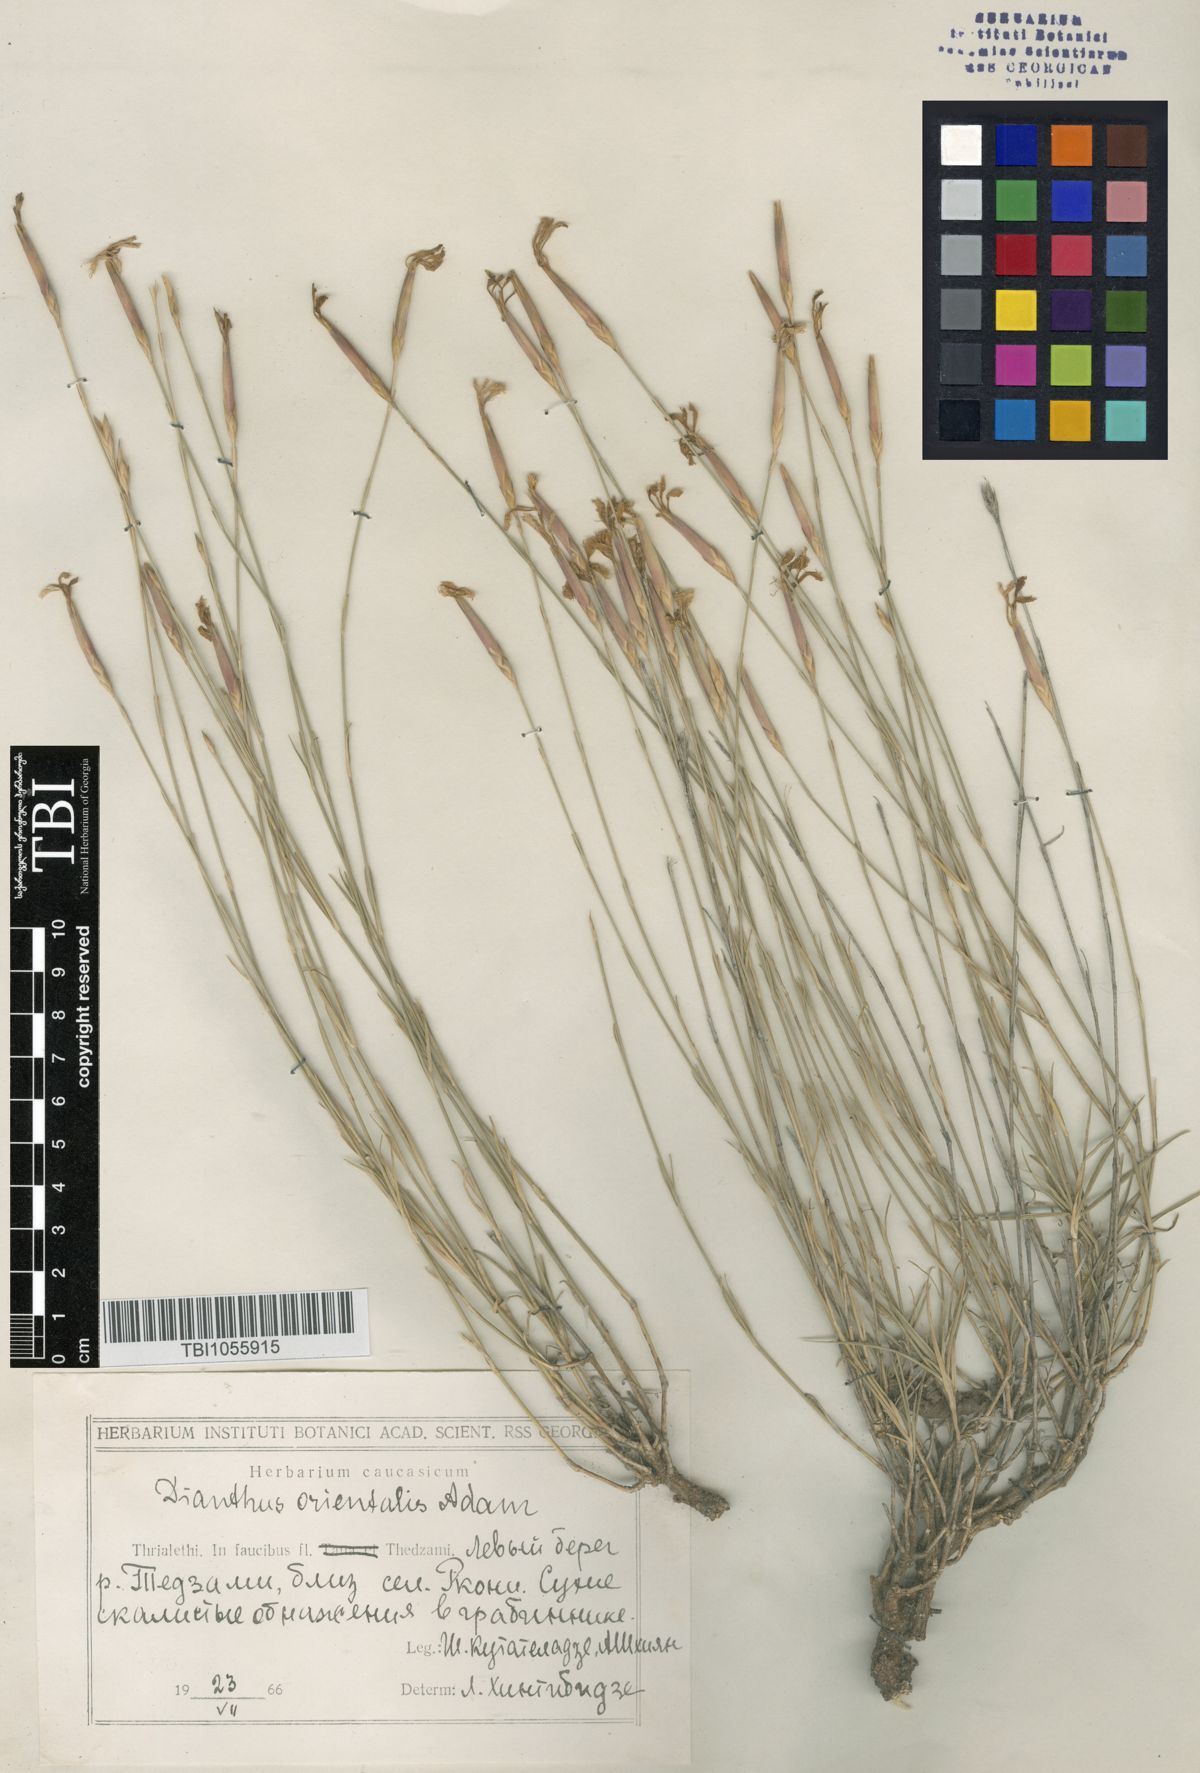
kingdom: Plantae
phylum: Tracheophyta
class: Magnoliopsida
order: Caryophyllales
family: Caryophyllaceae
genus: Dianthus
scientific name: Dianthus orientalis
